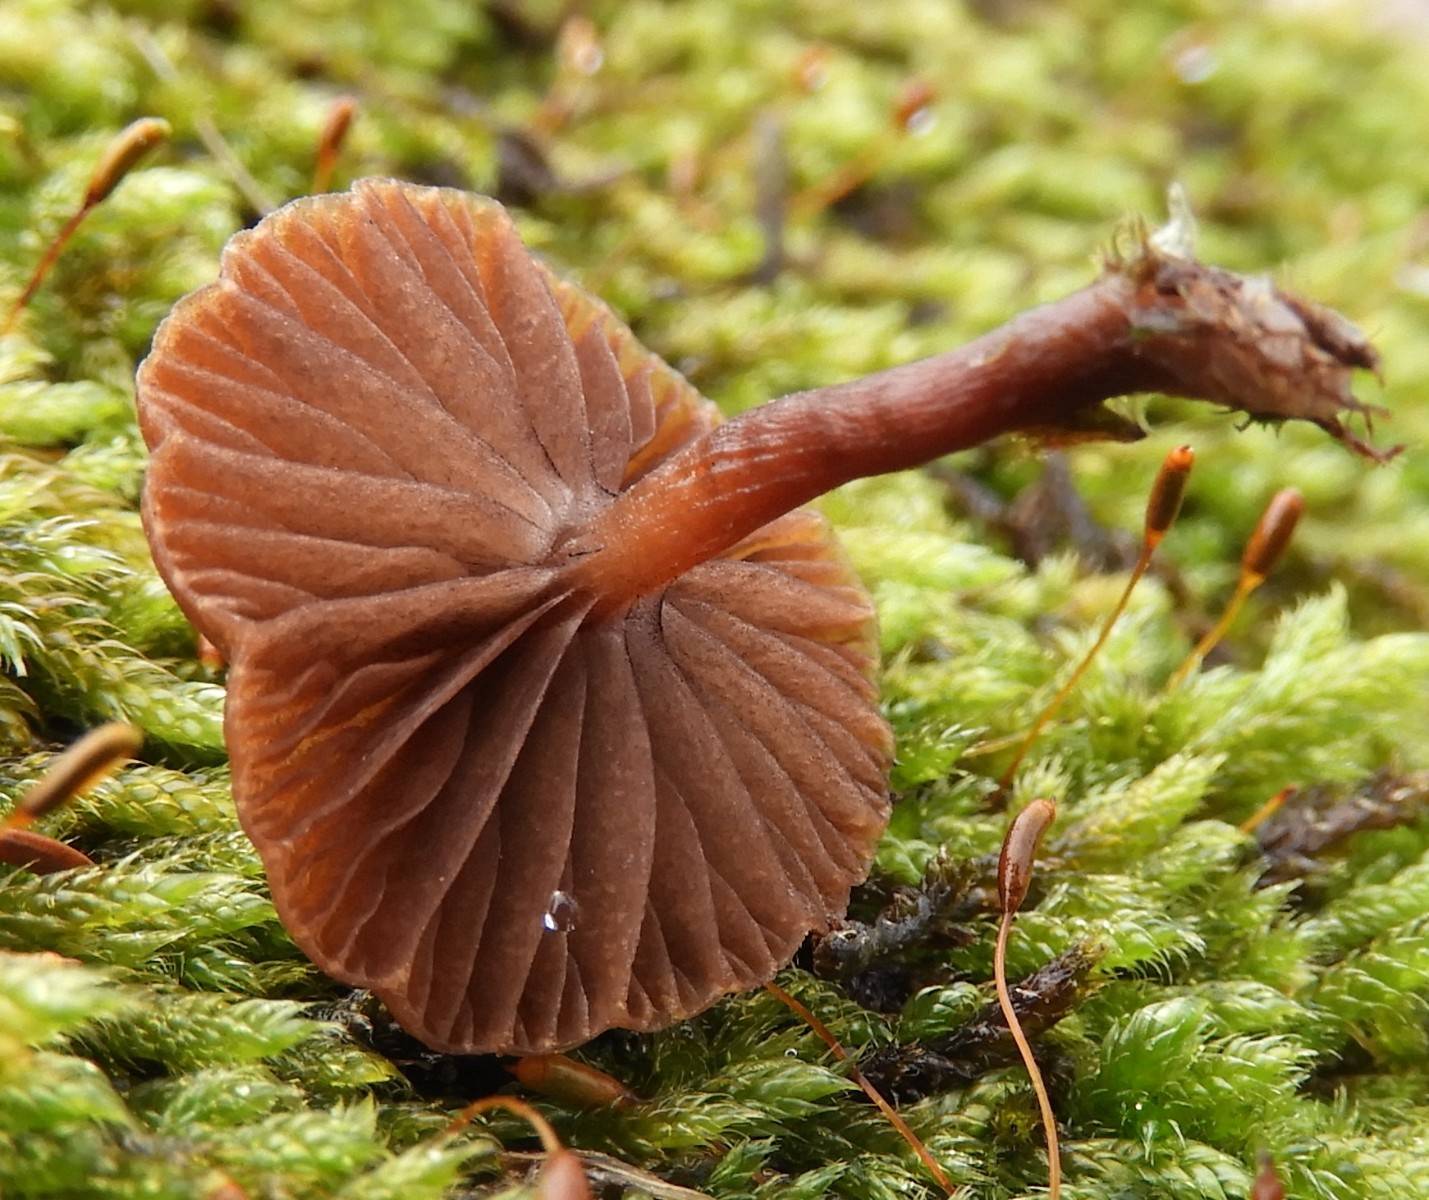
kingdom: Fungi
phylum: Basidiomycota
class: Agaricomycetes
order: Agaricales
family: Strophariaceae
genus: Deconica
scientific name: Deconica montana
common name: rødbrun stråhat
